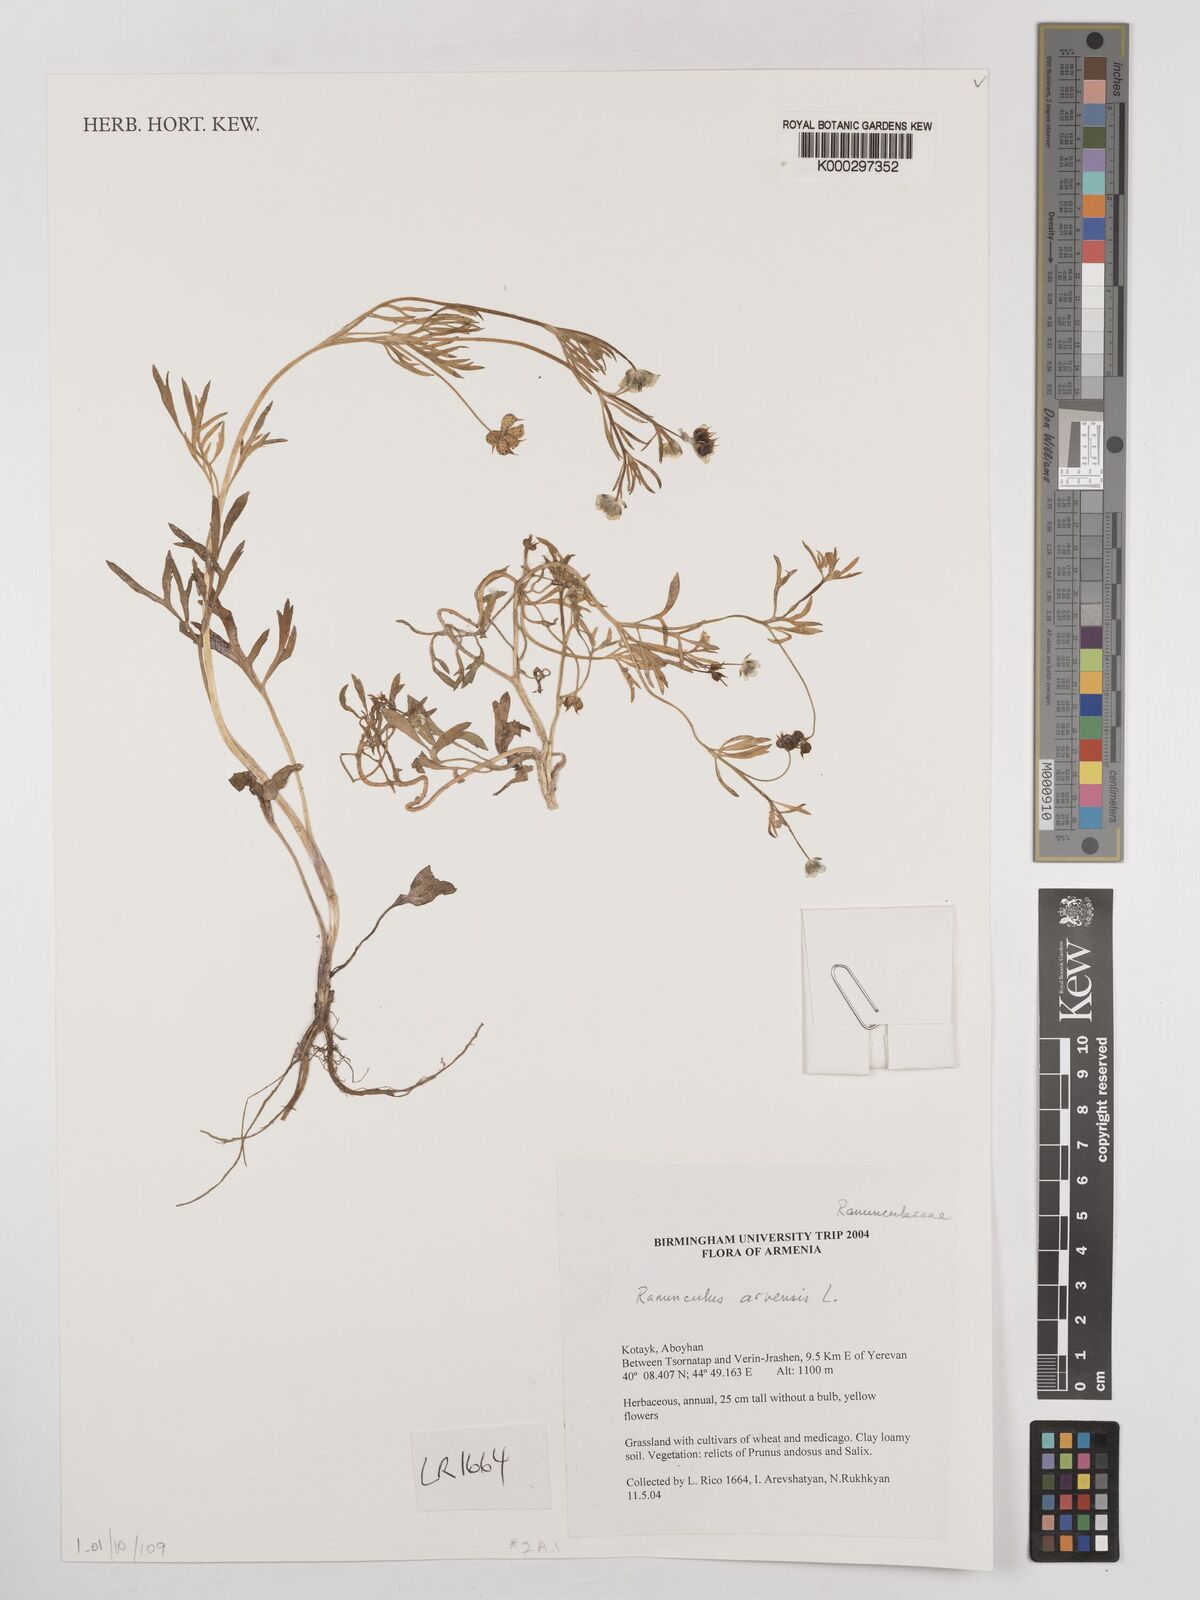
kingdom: Plantae
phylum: Tracheophyta
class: Magnoliopsida
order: Ranunculales
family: Ranunculaceae
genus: Ranunculus
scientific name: Ranunculus arvensis
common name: Corn buttercup
